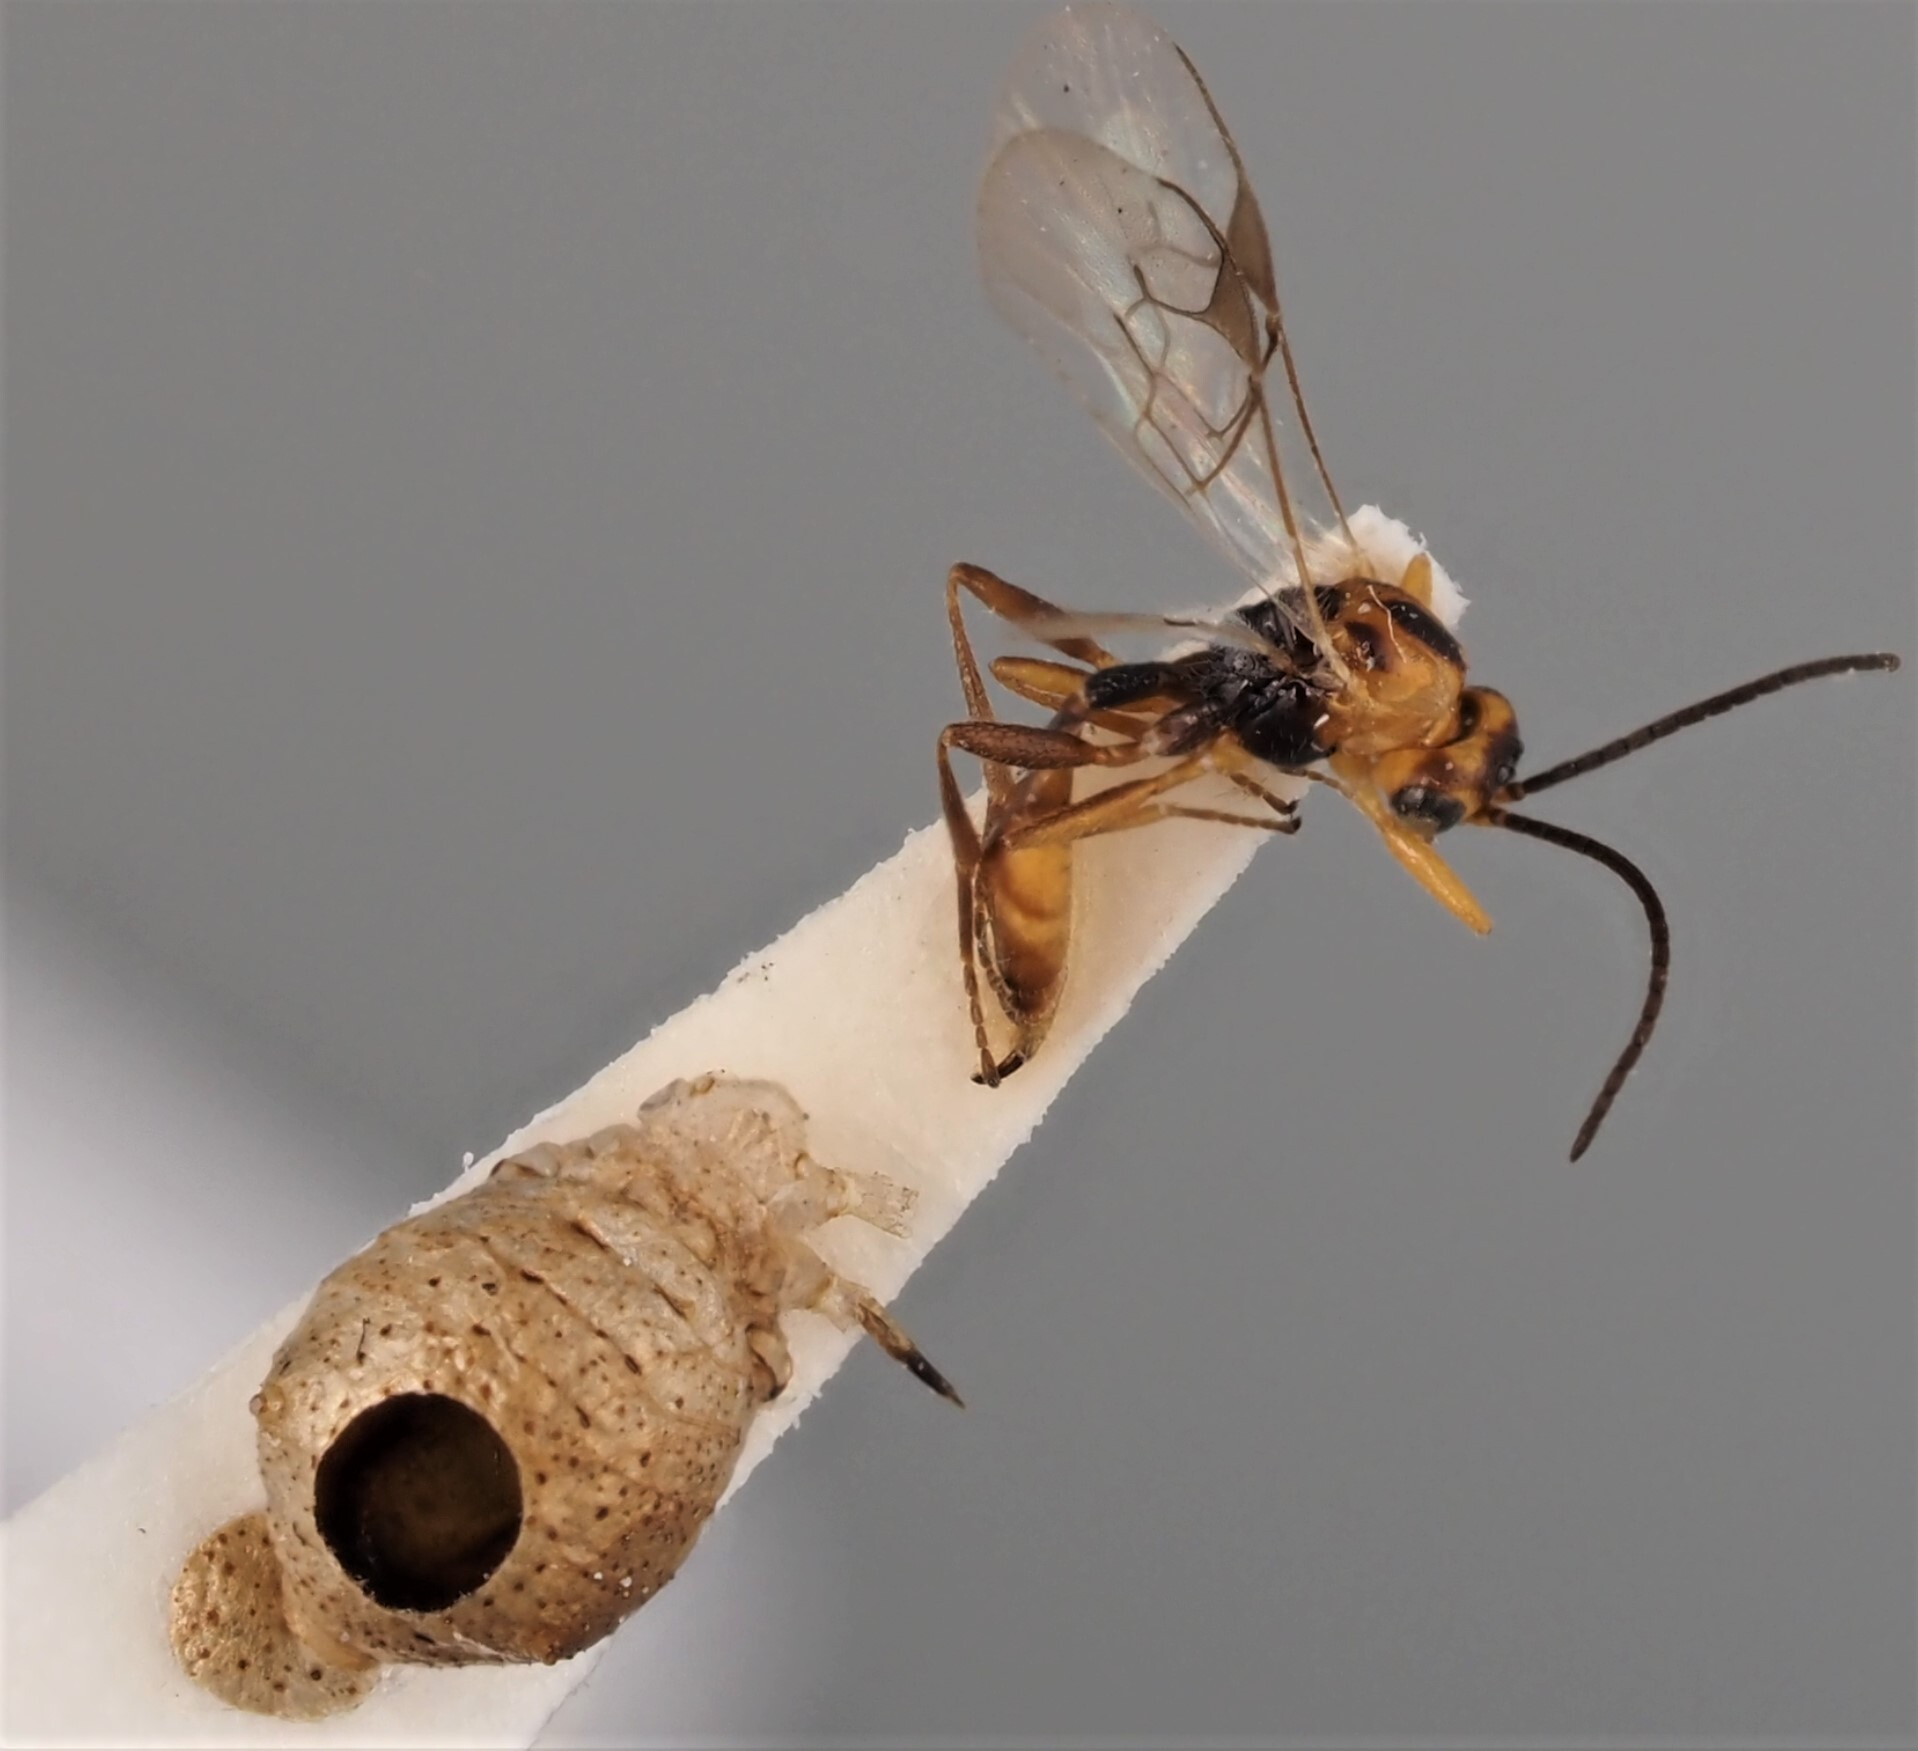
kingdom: Animalia
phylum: Arthropoda
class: Insecta
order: Hymenoptera
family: Braconidae
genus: Pauesia
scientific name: Pauesia picta
